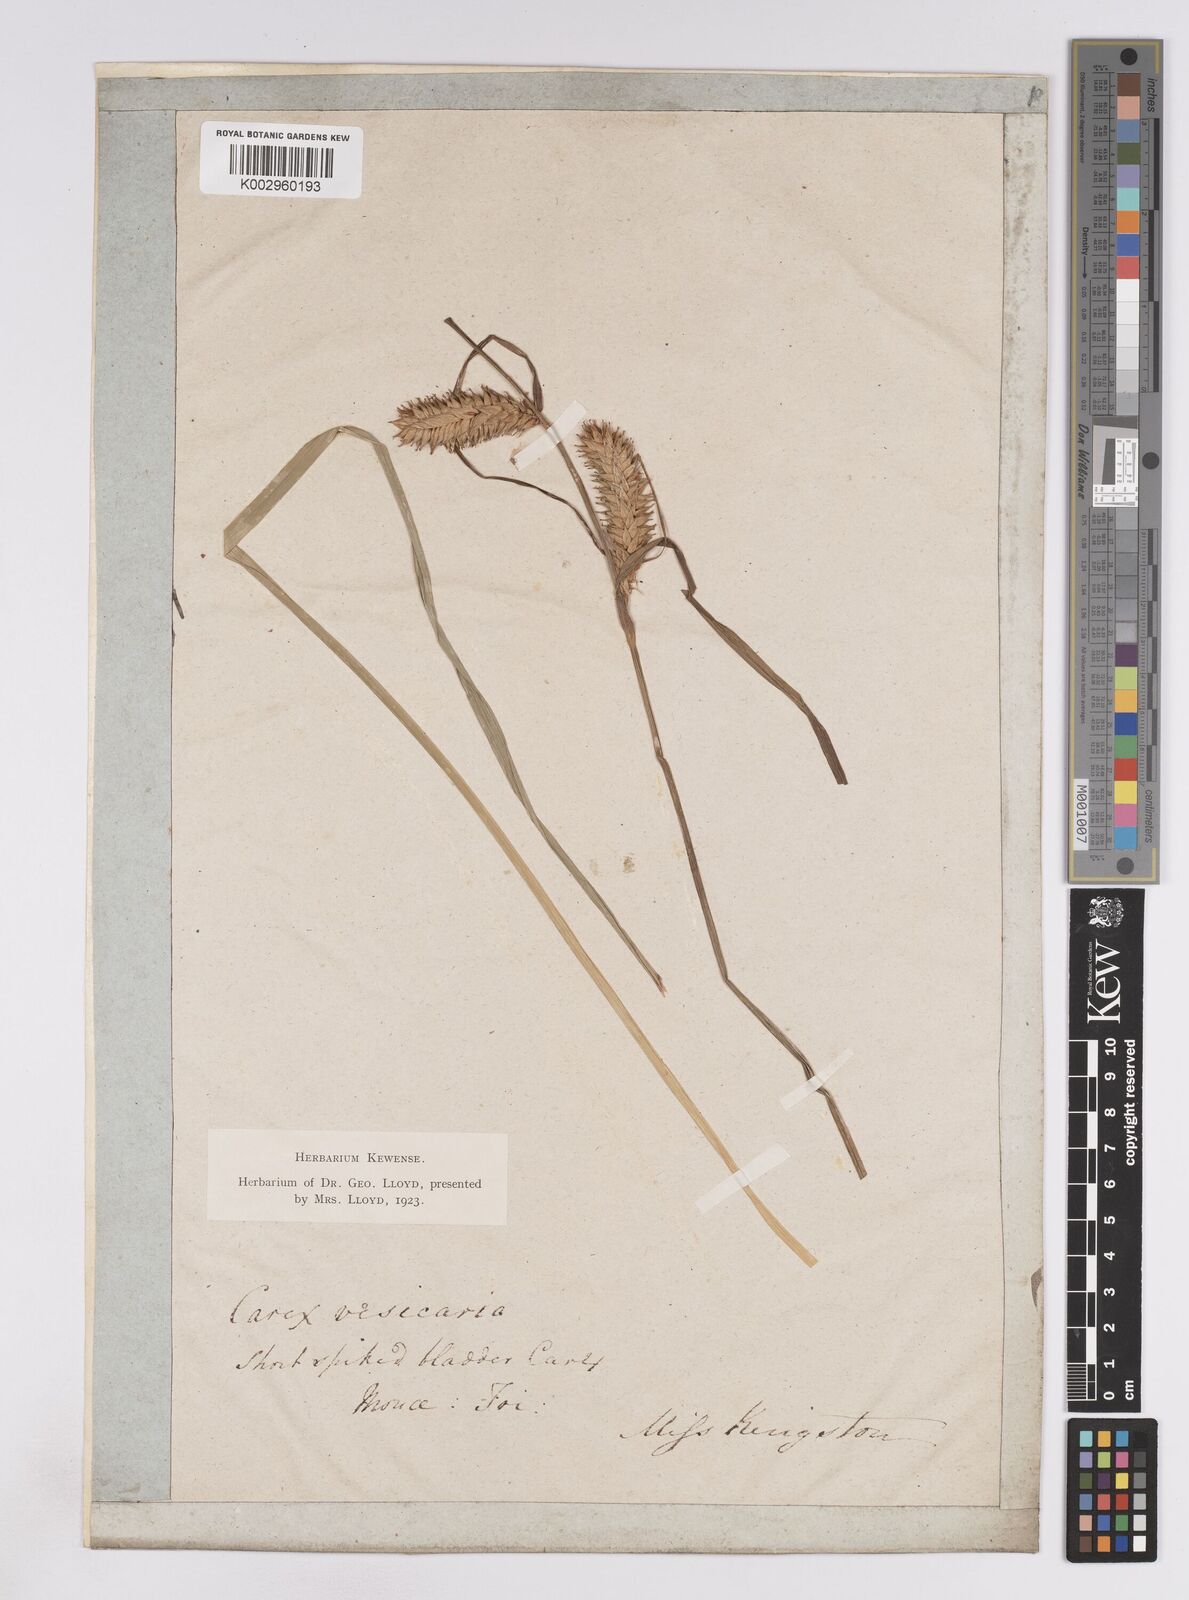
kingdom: Plantae
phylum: Tracheophyta
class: Liliopsida
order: Poales
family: Cyperaceae
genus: Carex
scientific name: Carex vesicaria
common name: Bladder-sedge
